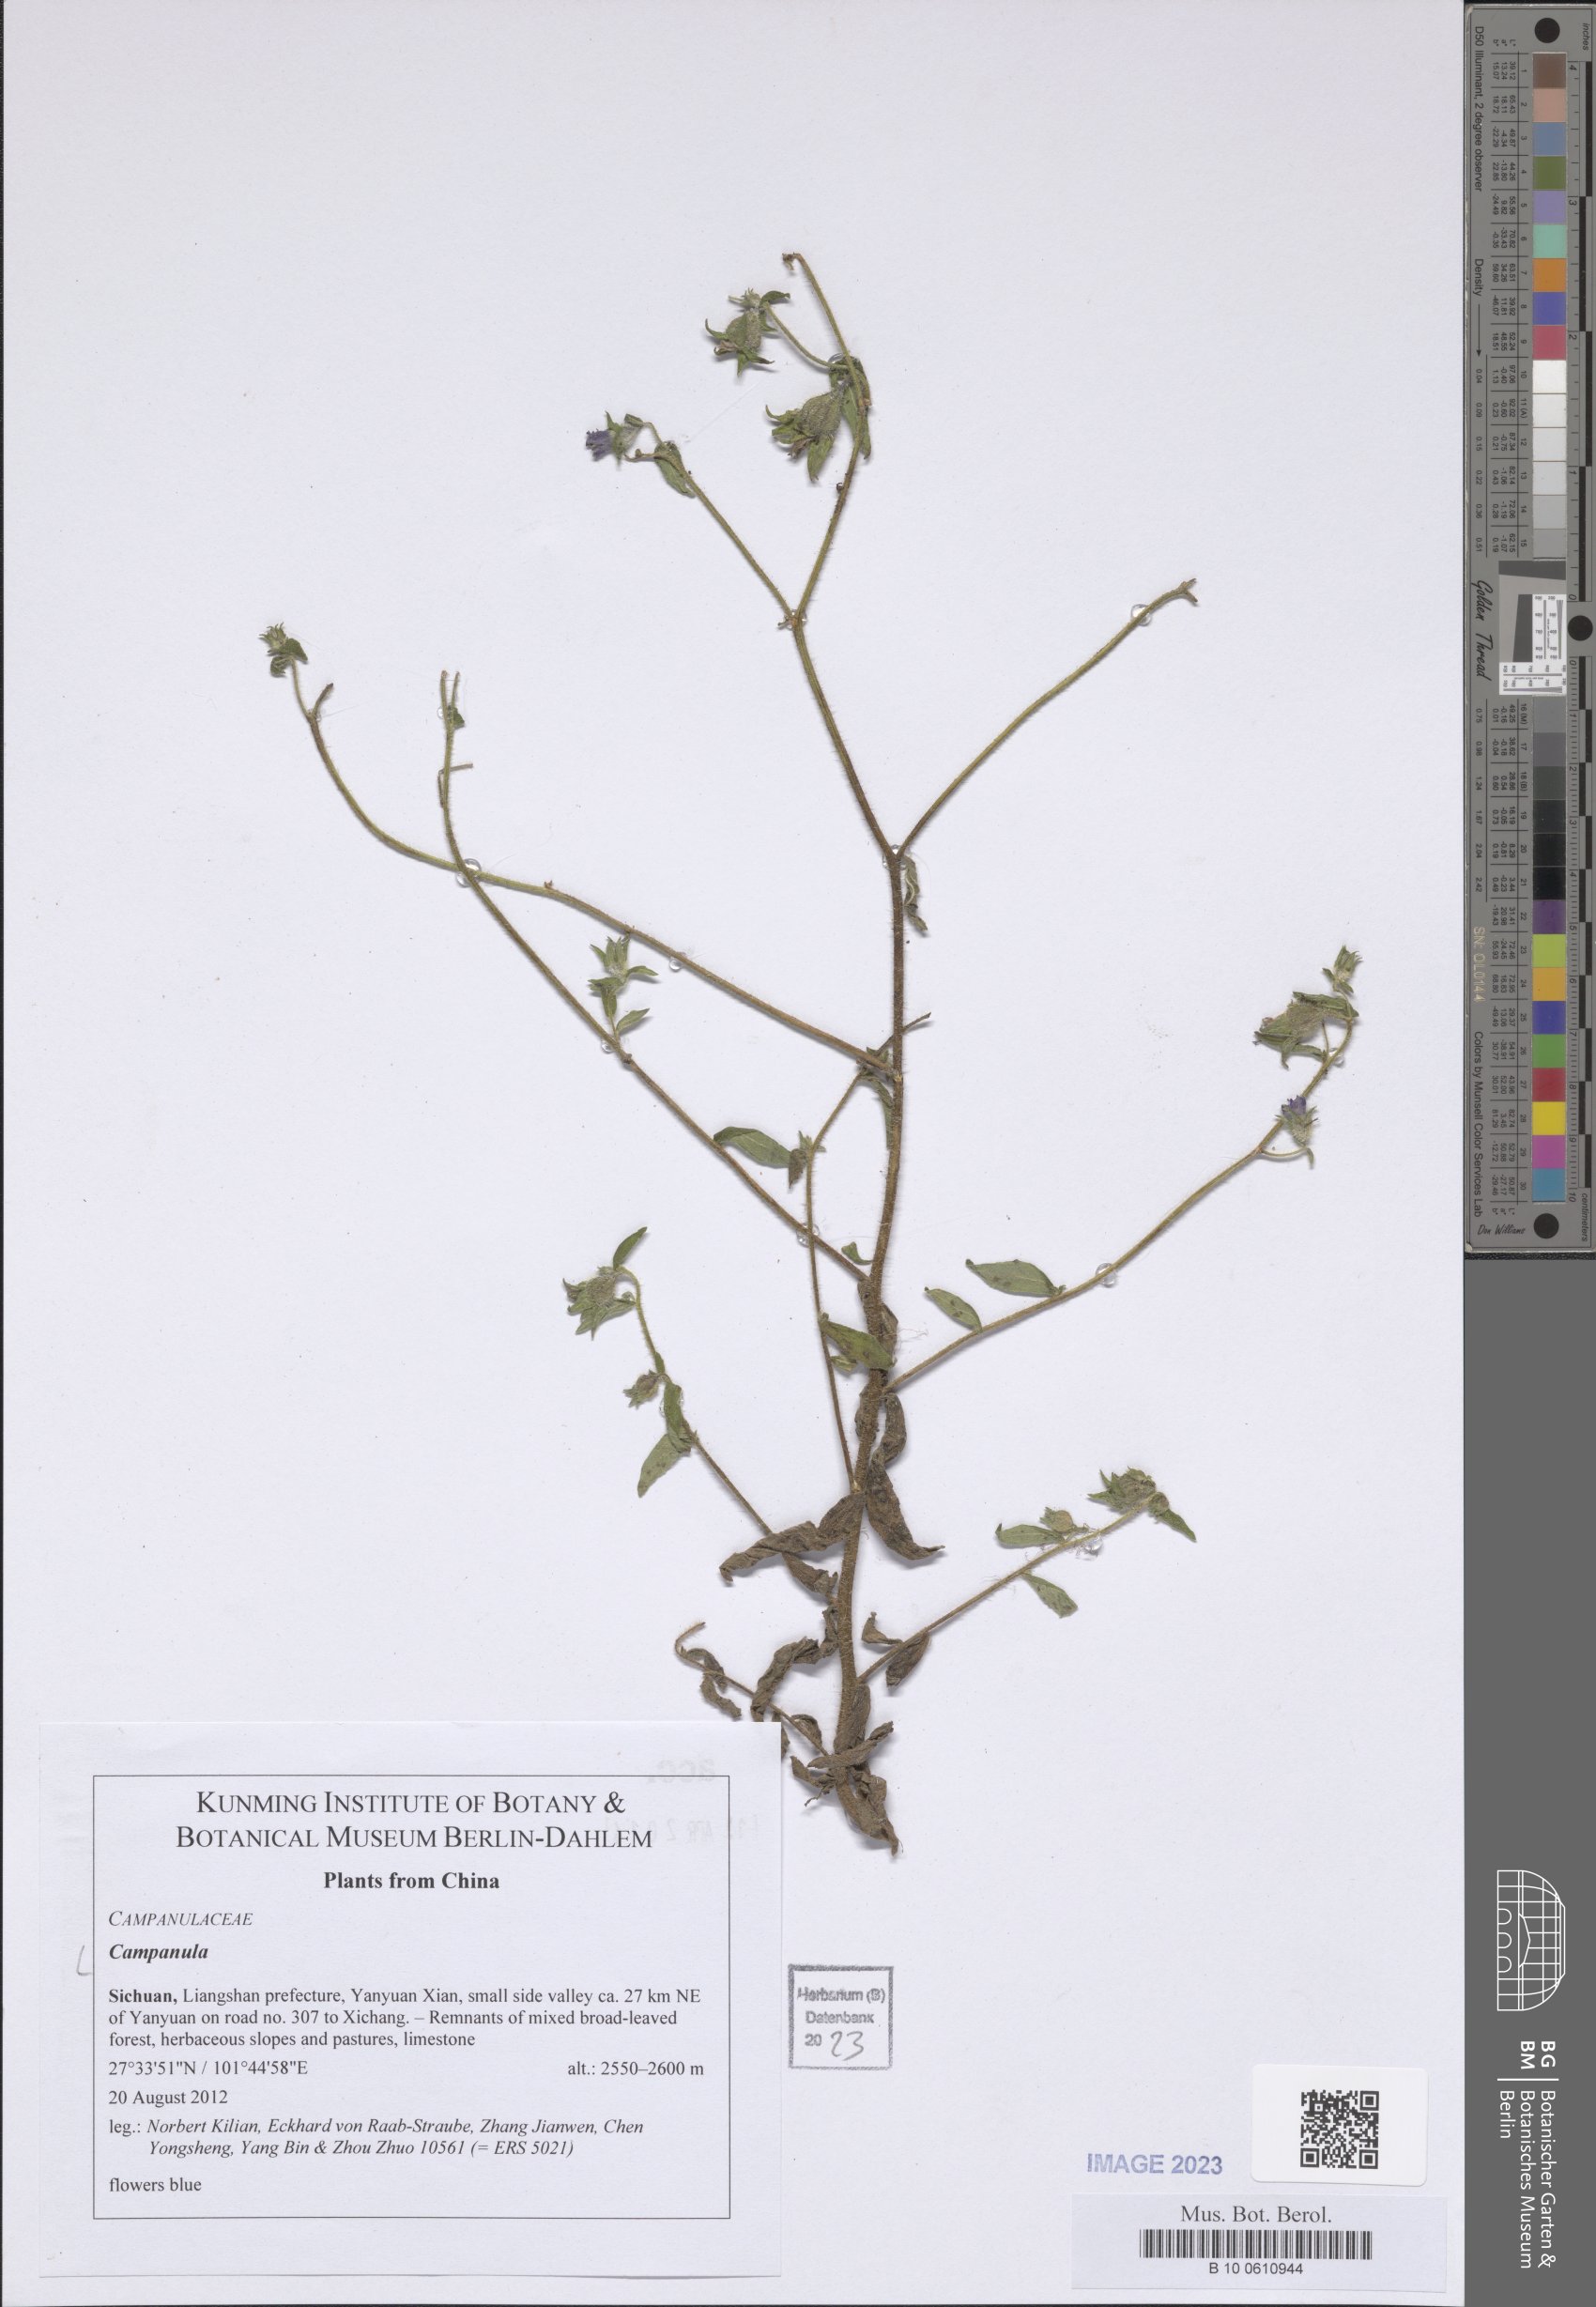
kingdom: Plantae
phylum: Tracheophyta
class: Magnoliopsida
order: Asterales
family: Campanulaceae
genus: Campanula
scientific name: Campanula
